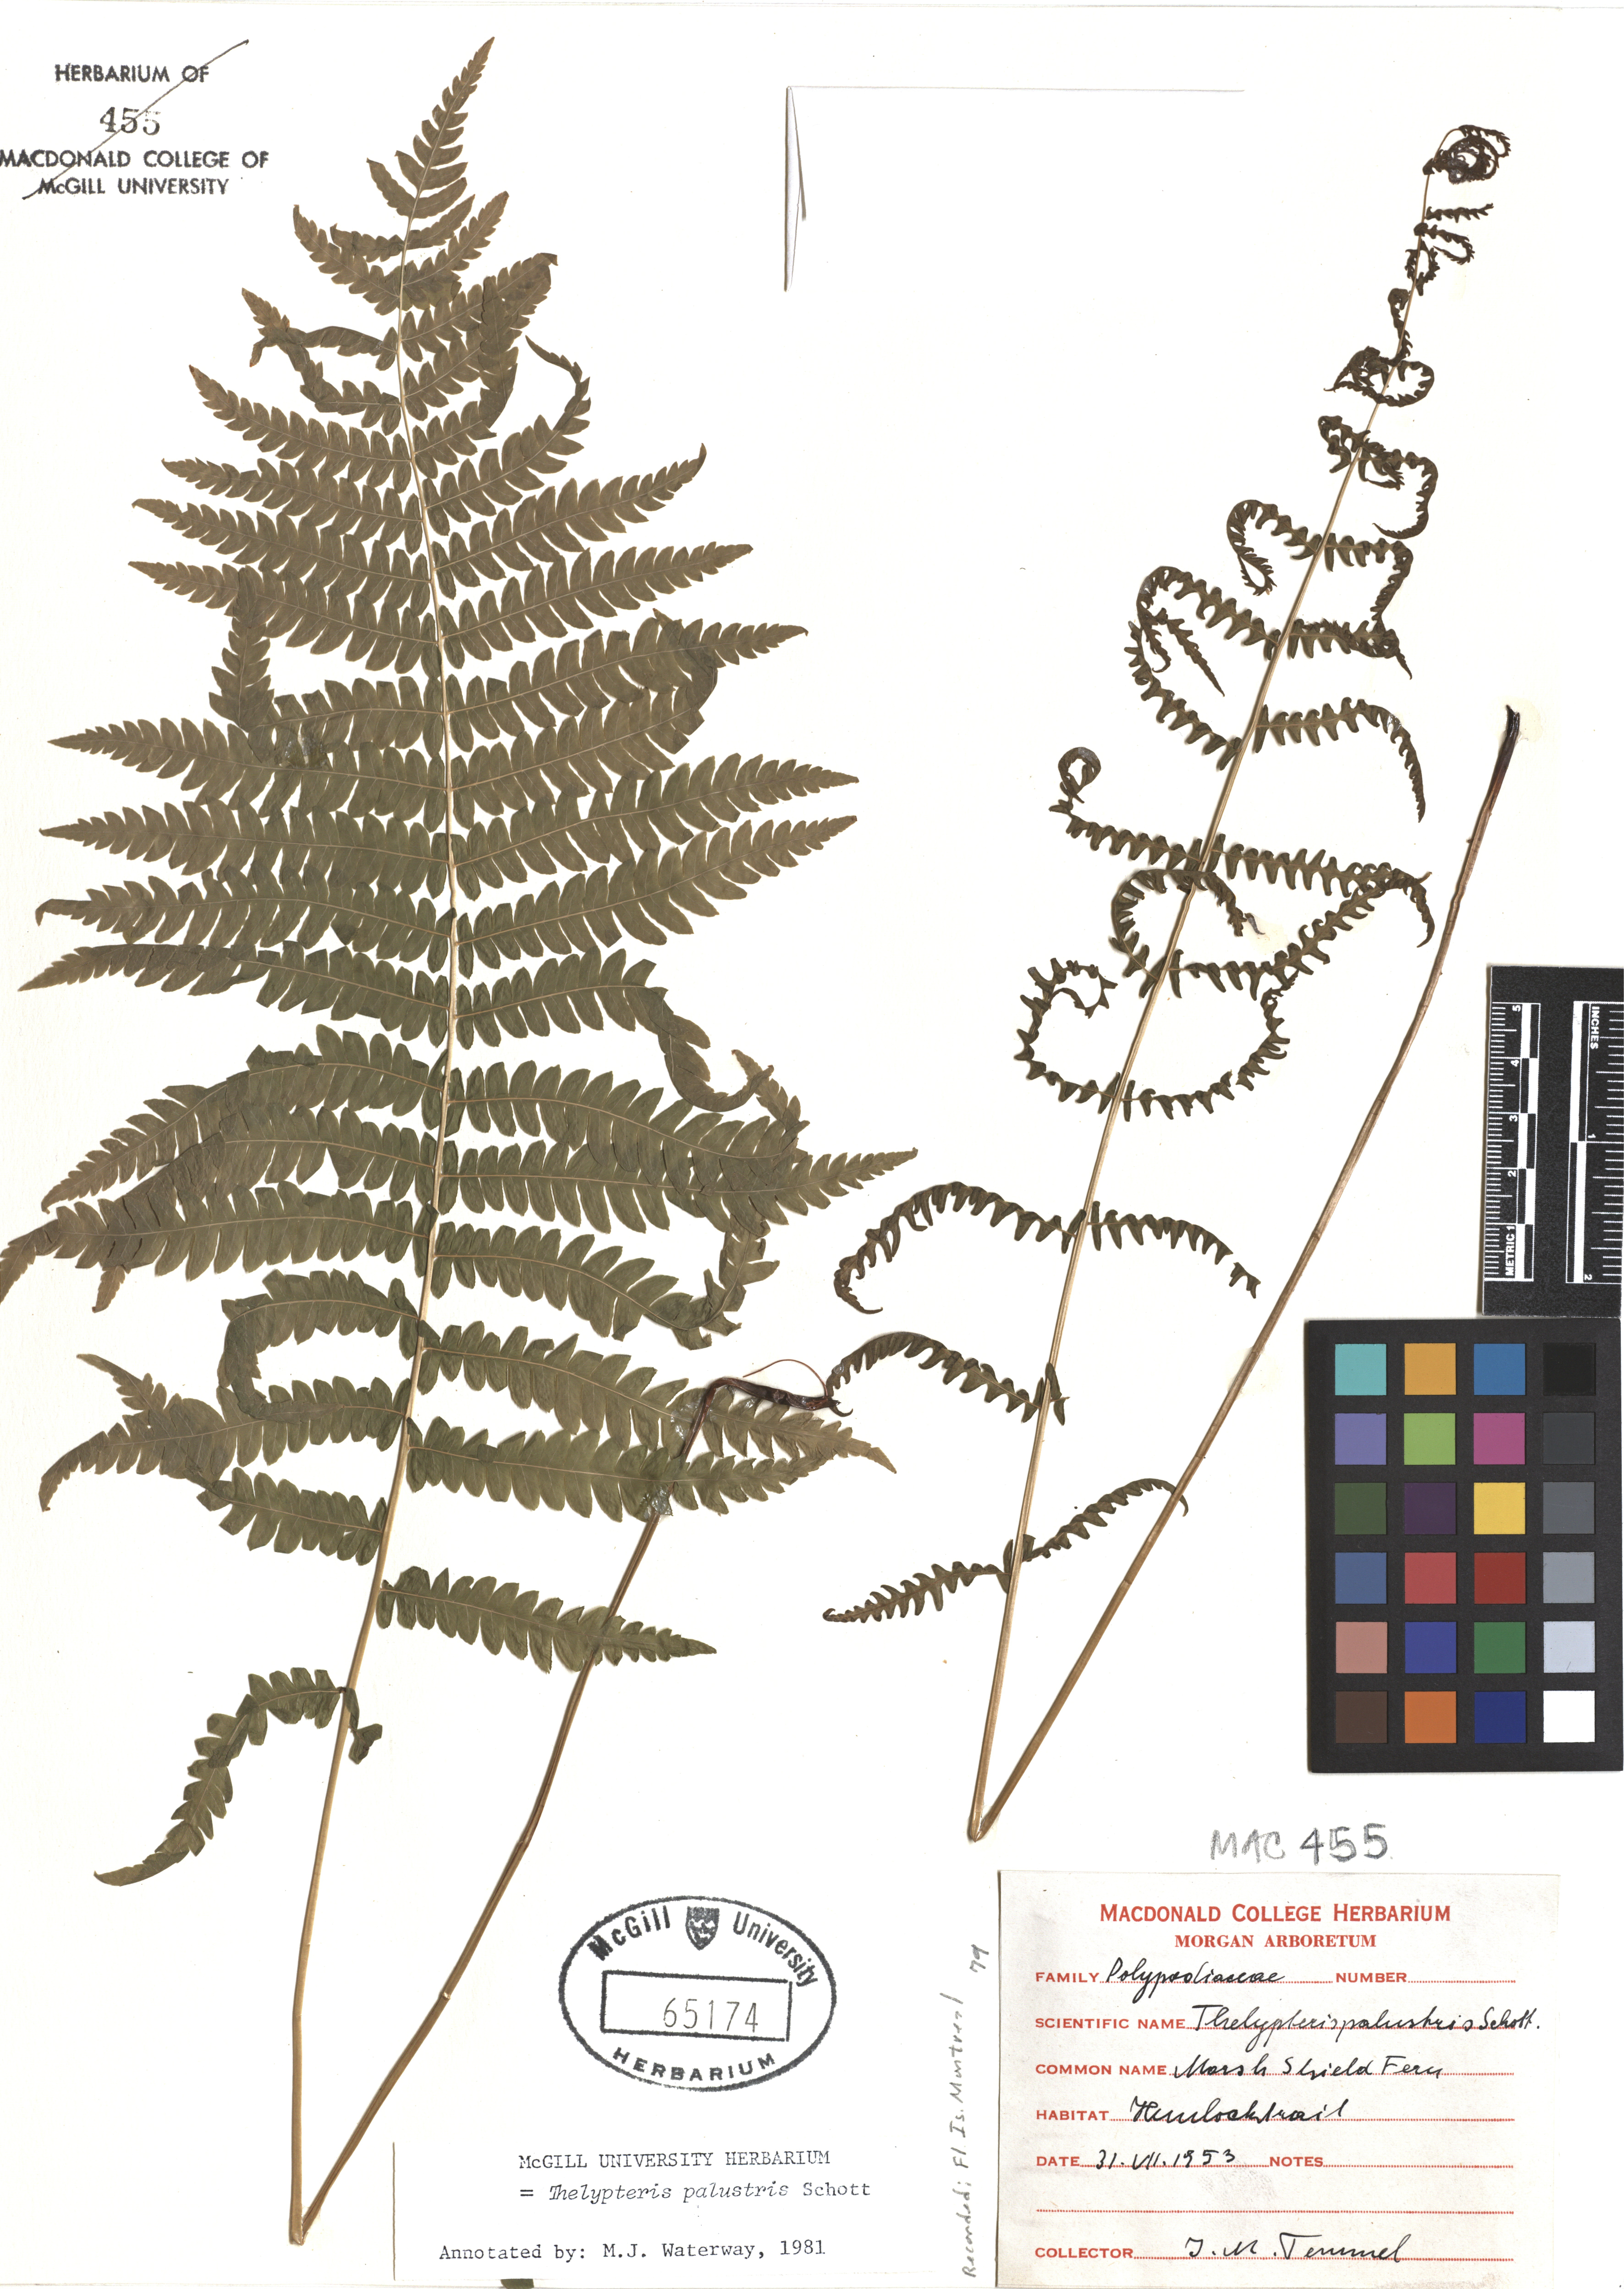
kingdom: Plantae
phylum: Tracheophyta
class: Polypodiopsida
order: Polypodiales
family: Thelypteridaceae
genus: Thelypteris
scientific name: Thelypteris palustris
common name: Marsh fern
